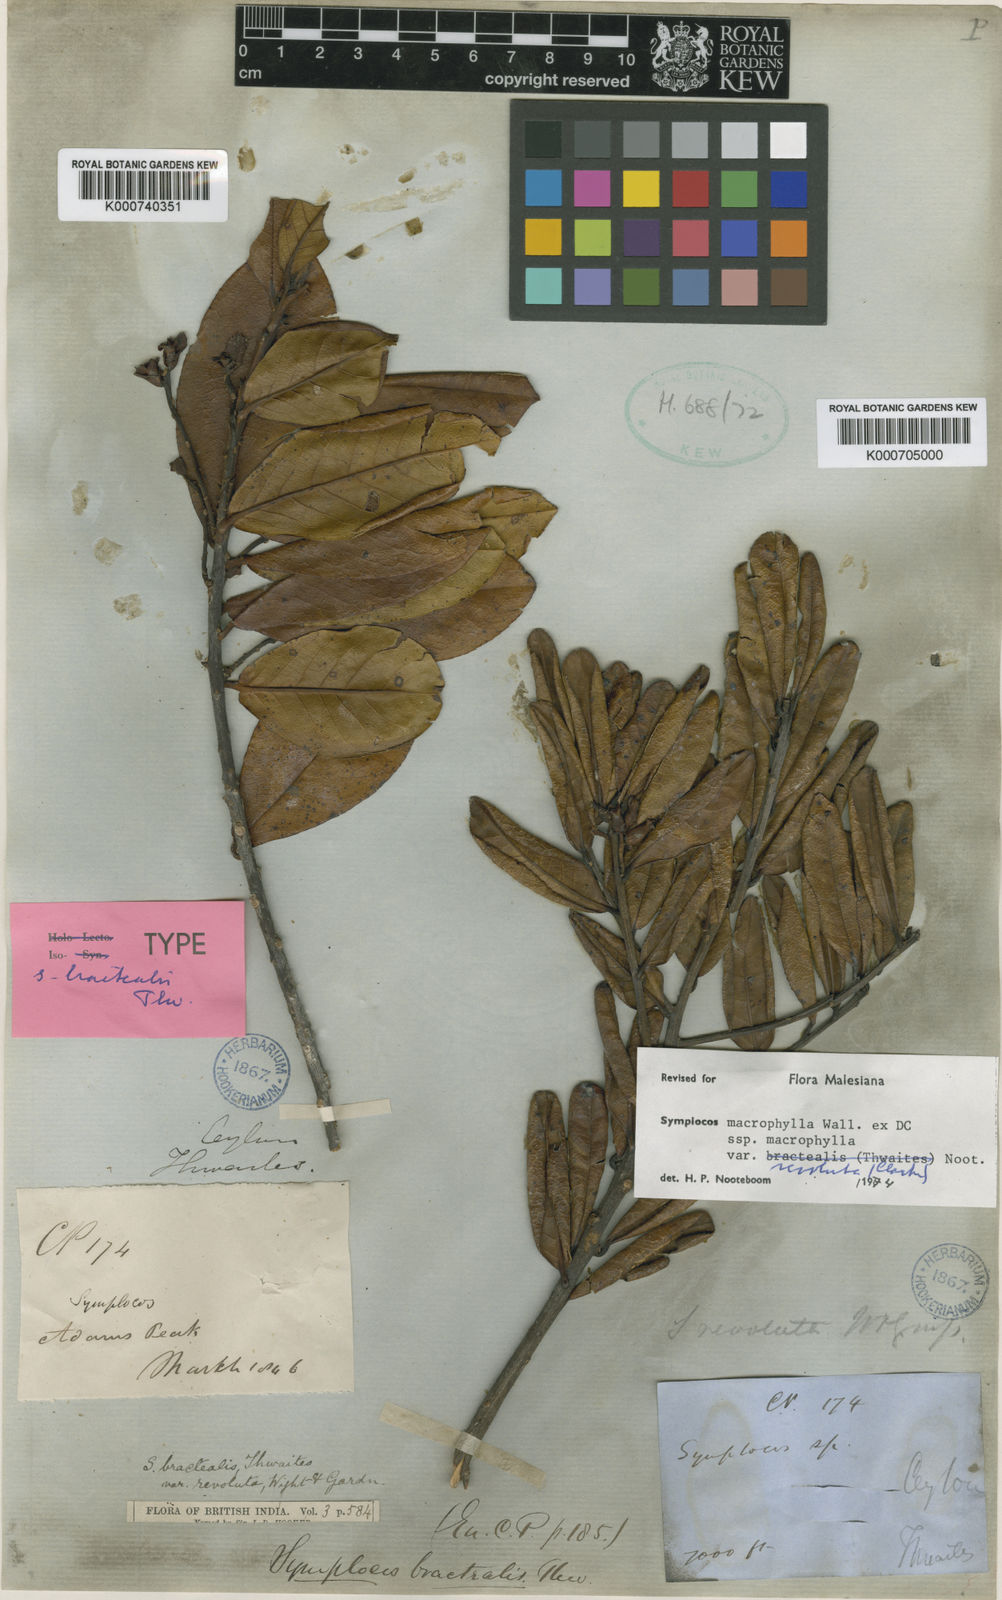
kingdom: Plantae
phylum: Tracheophyta
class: Magnoliopsida
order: Ericales
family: Symplocaceae
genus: Symplocos
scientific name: Symplocos
